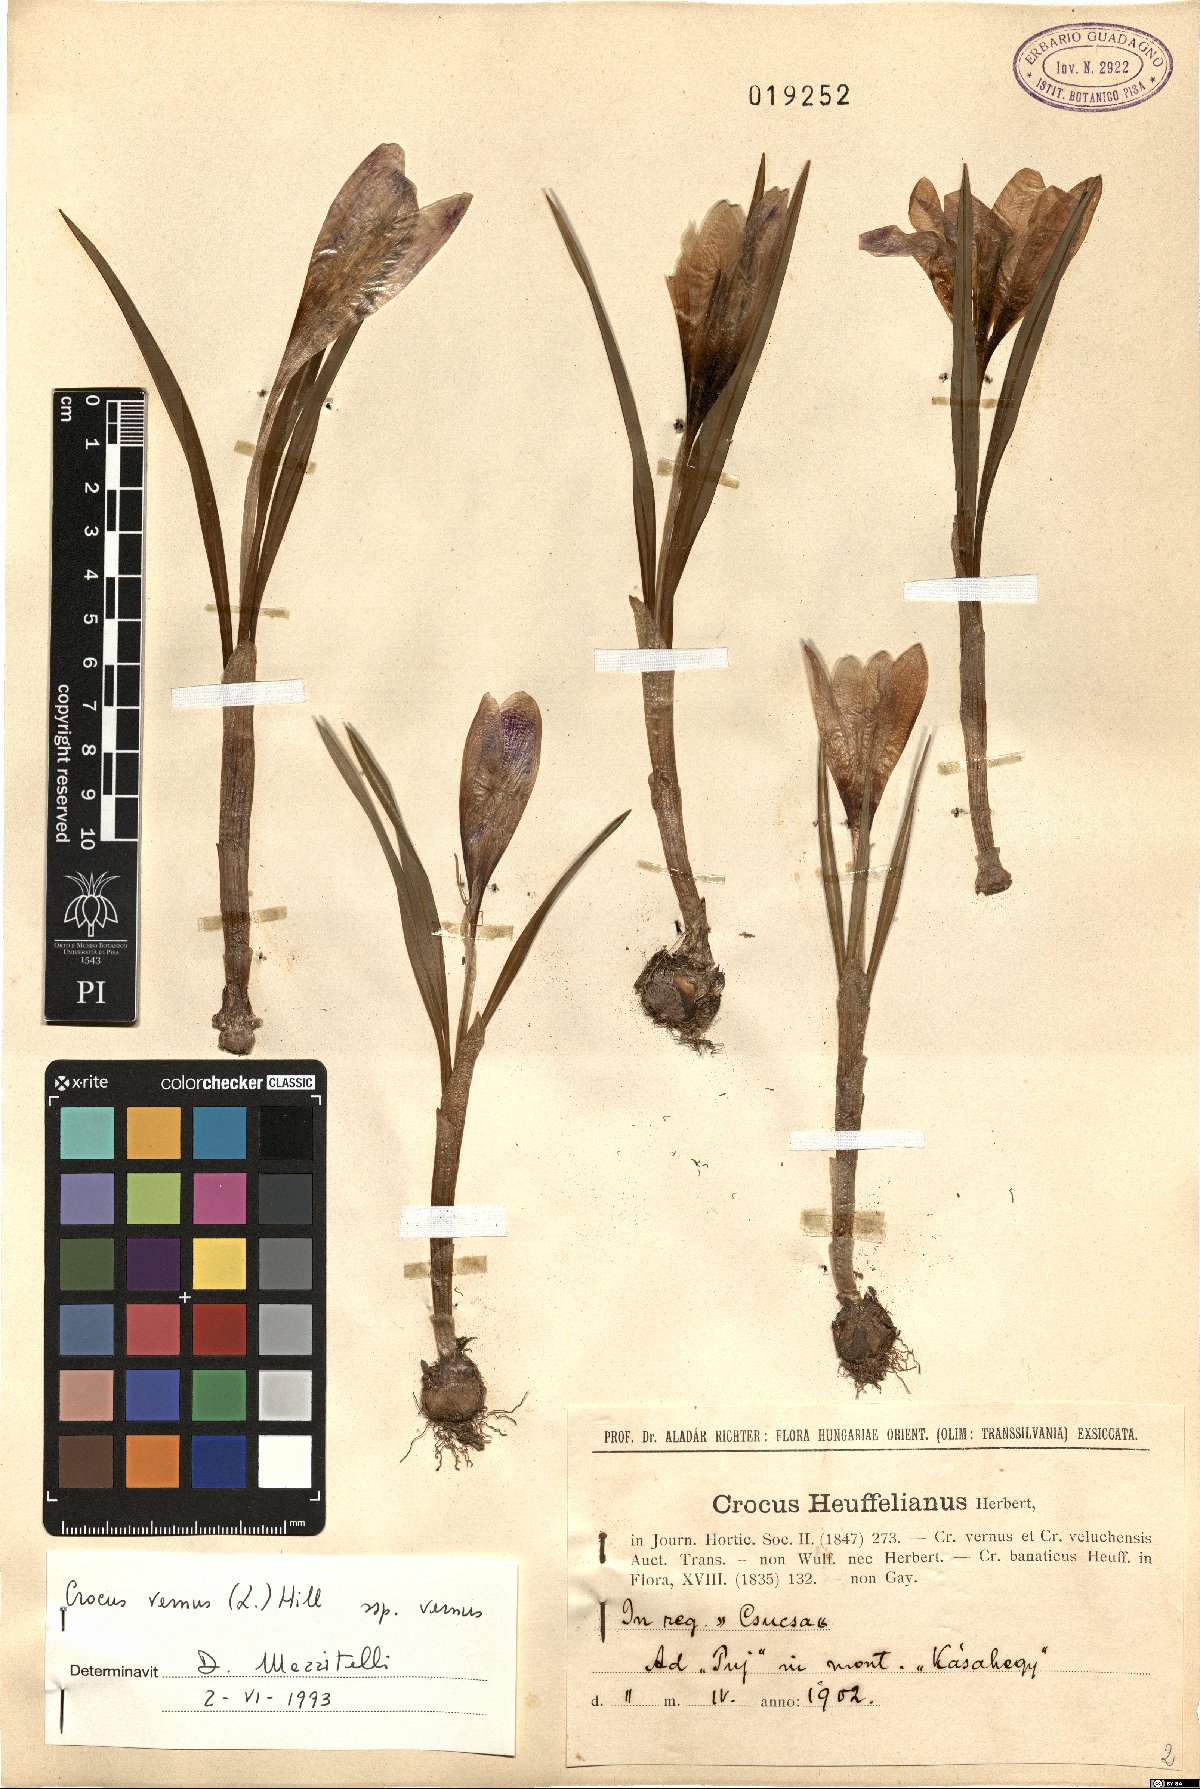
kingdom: Plantae
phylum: Tracheophyta
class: Liliopsida
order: Asparagales
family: Iridaceae
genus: Crocus
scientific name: Crocus vernus
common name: Spring crocus
